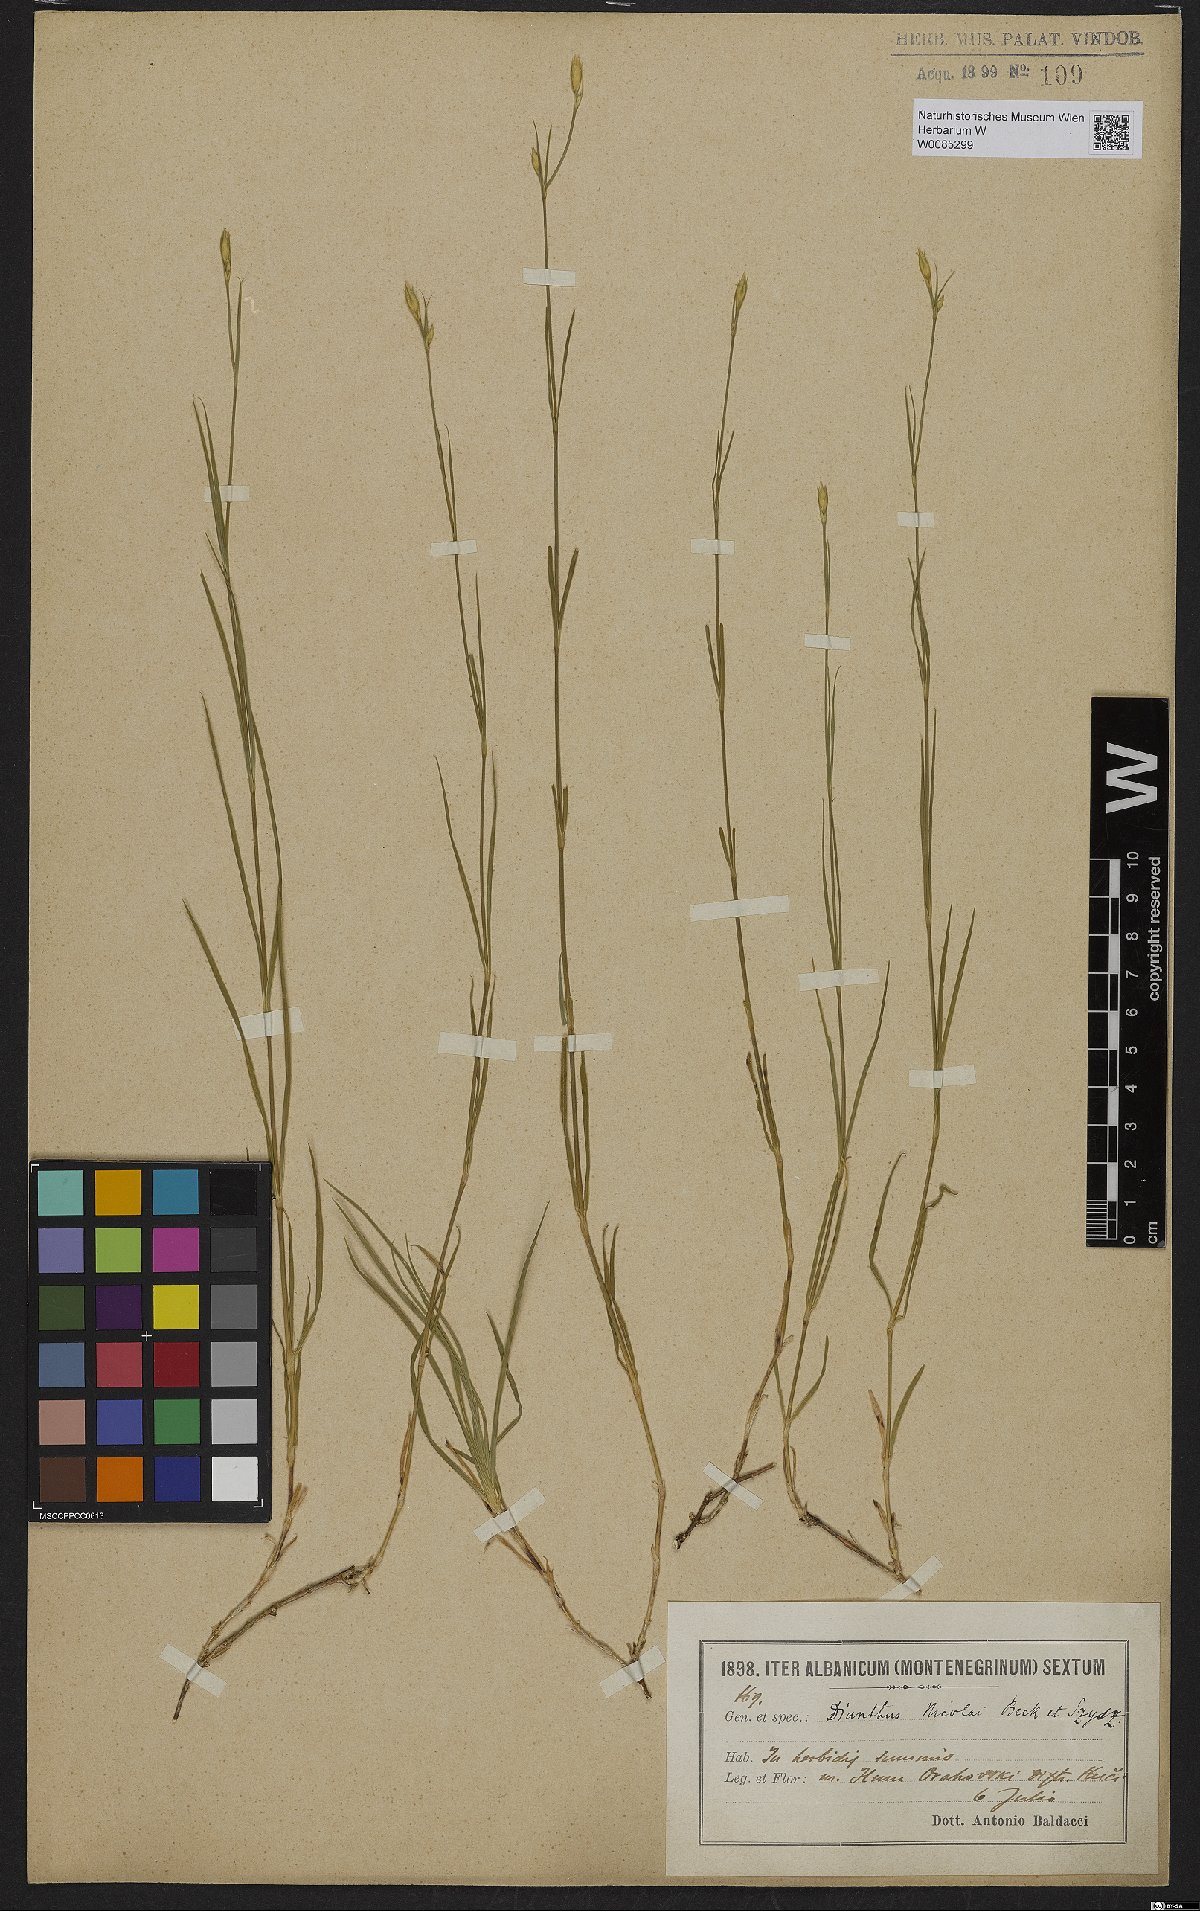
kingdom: Plantae
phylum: Tracheophyta
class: Magnoliopsida
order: Caryophyllales
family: Caryophyllaceae
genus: Dianthus
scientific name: Dianthus petraeus
